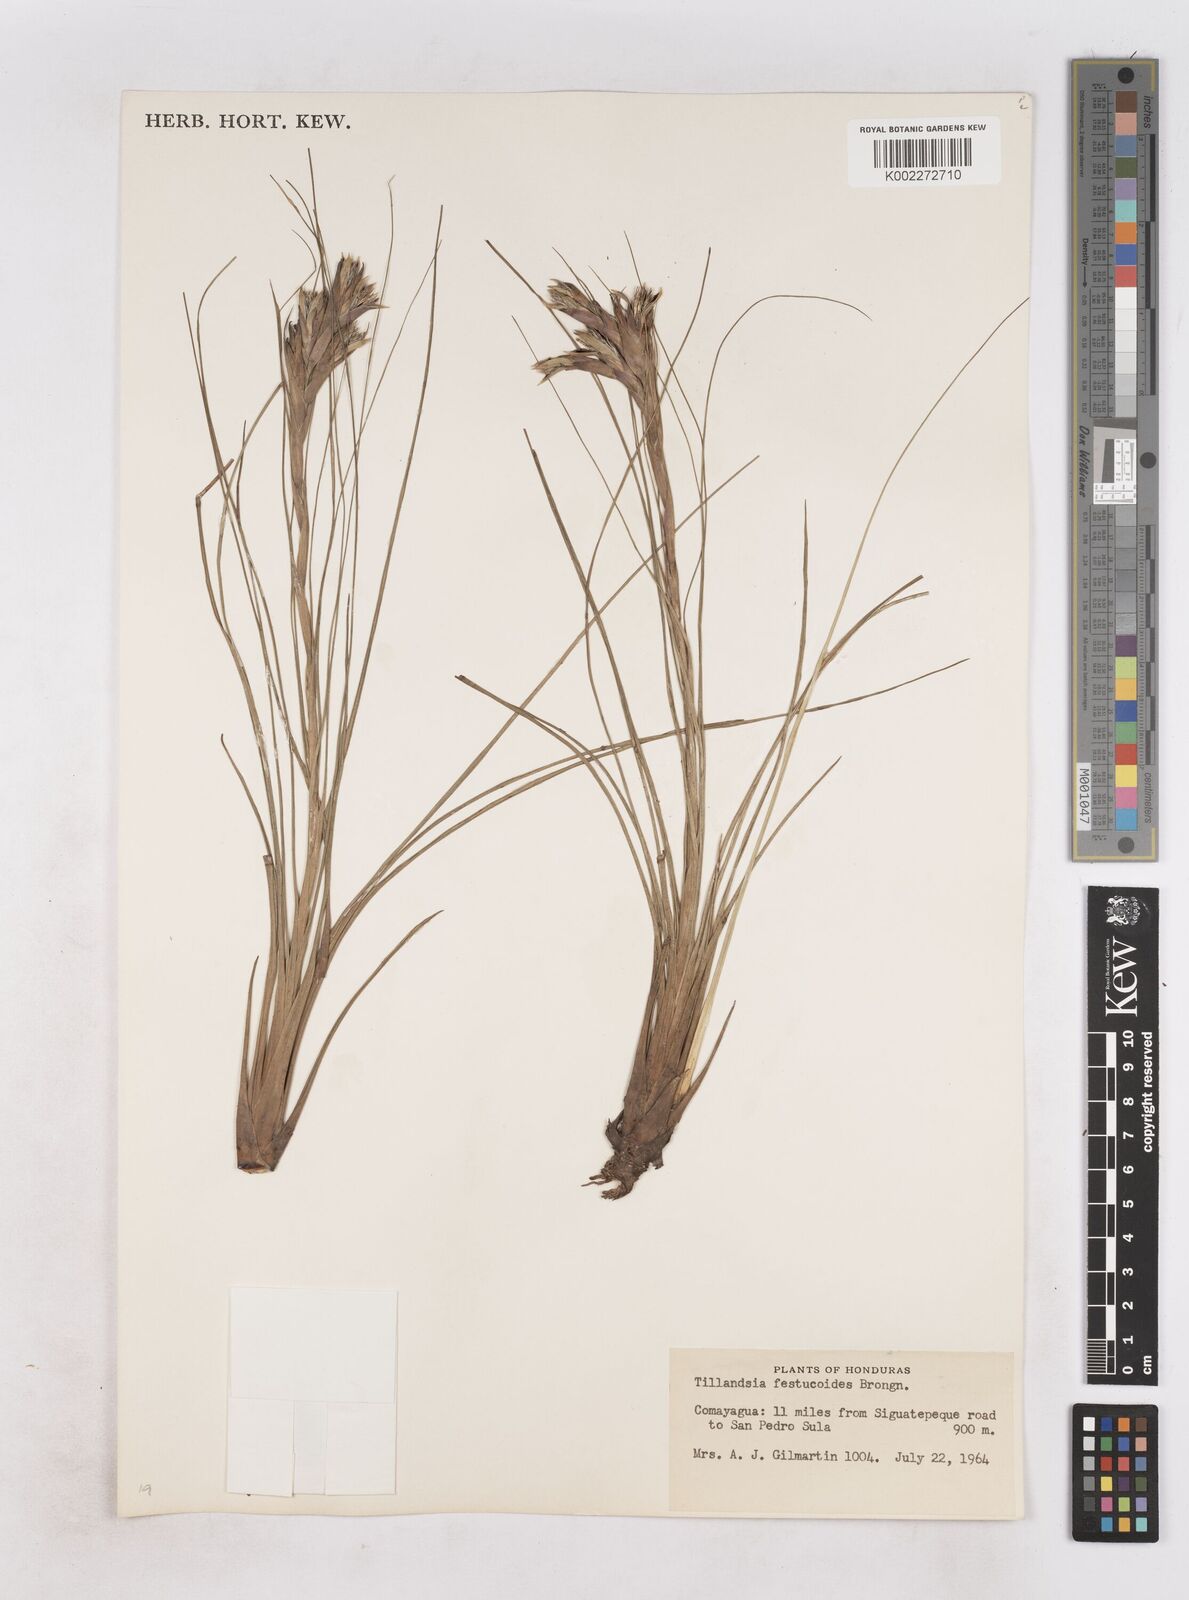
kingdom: Plantae
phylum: Tracheophyta
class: Liliopsida
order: Poales
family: Bromeliaceae
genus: Tillandsia
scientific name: Tillandsia festucoides
